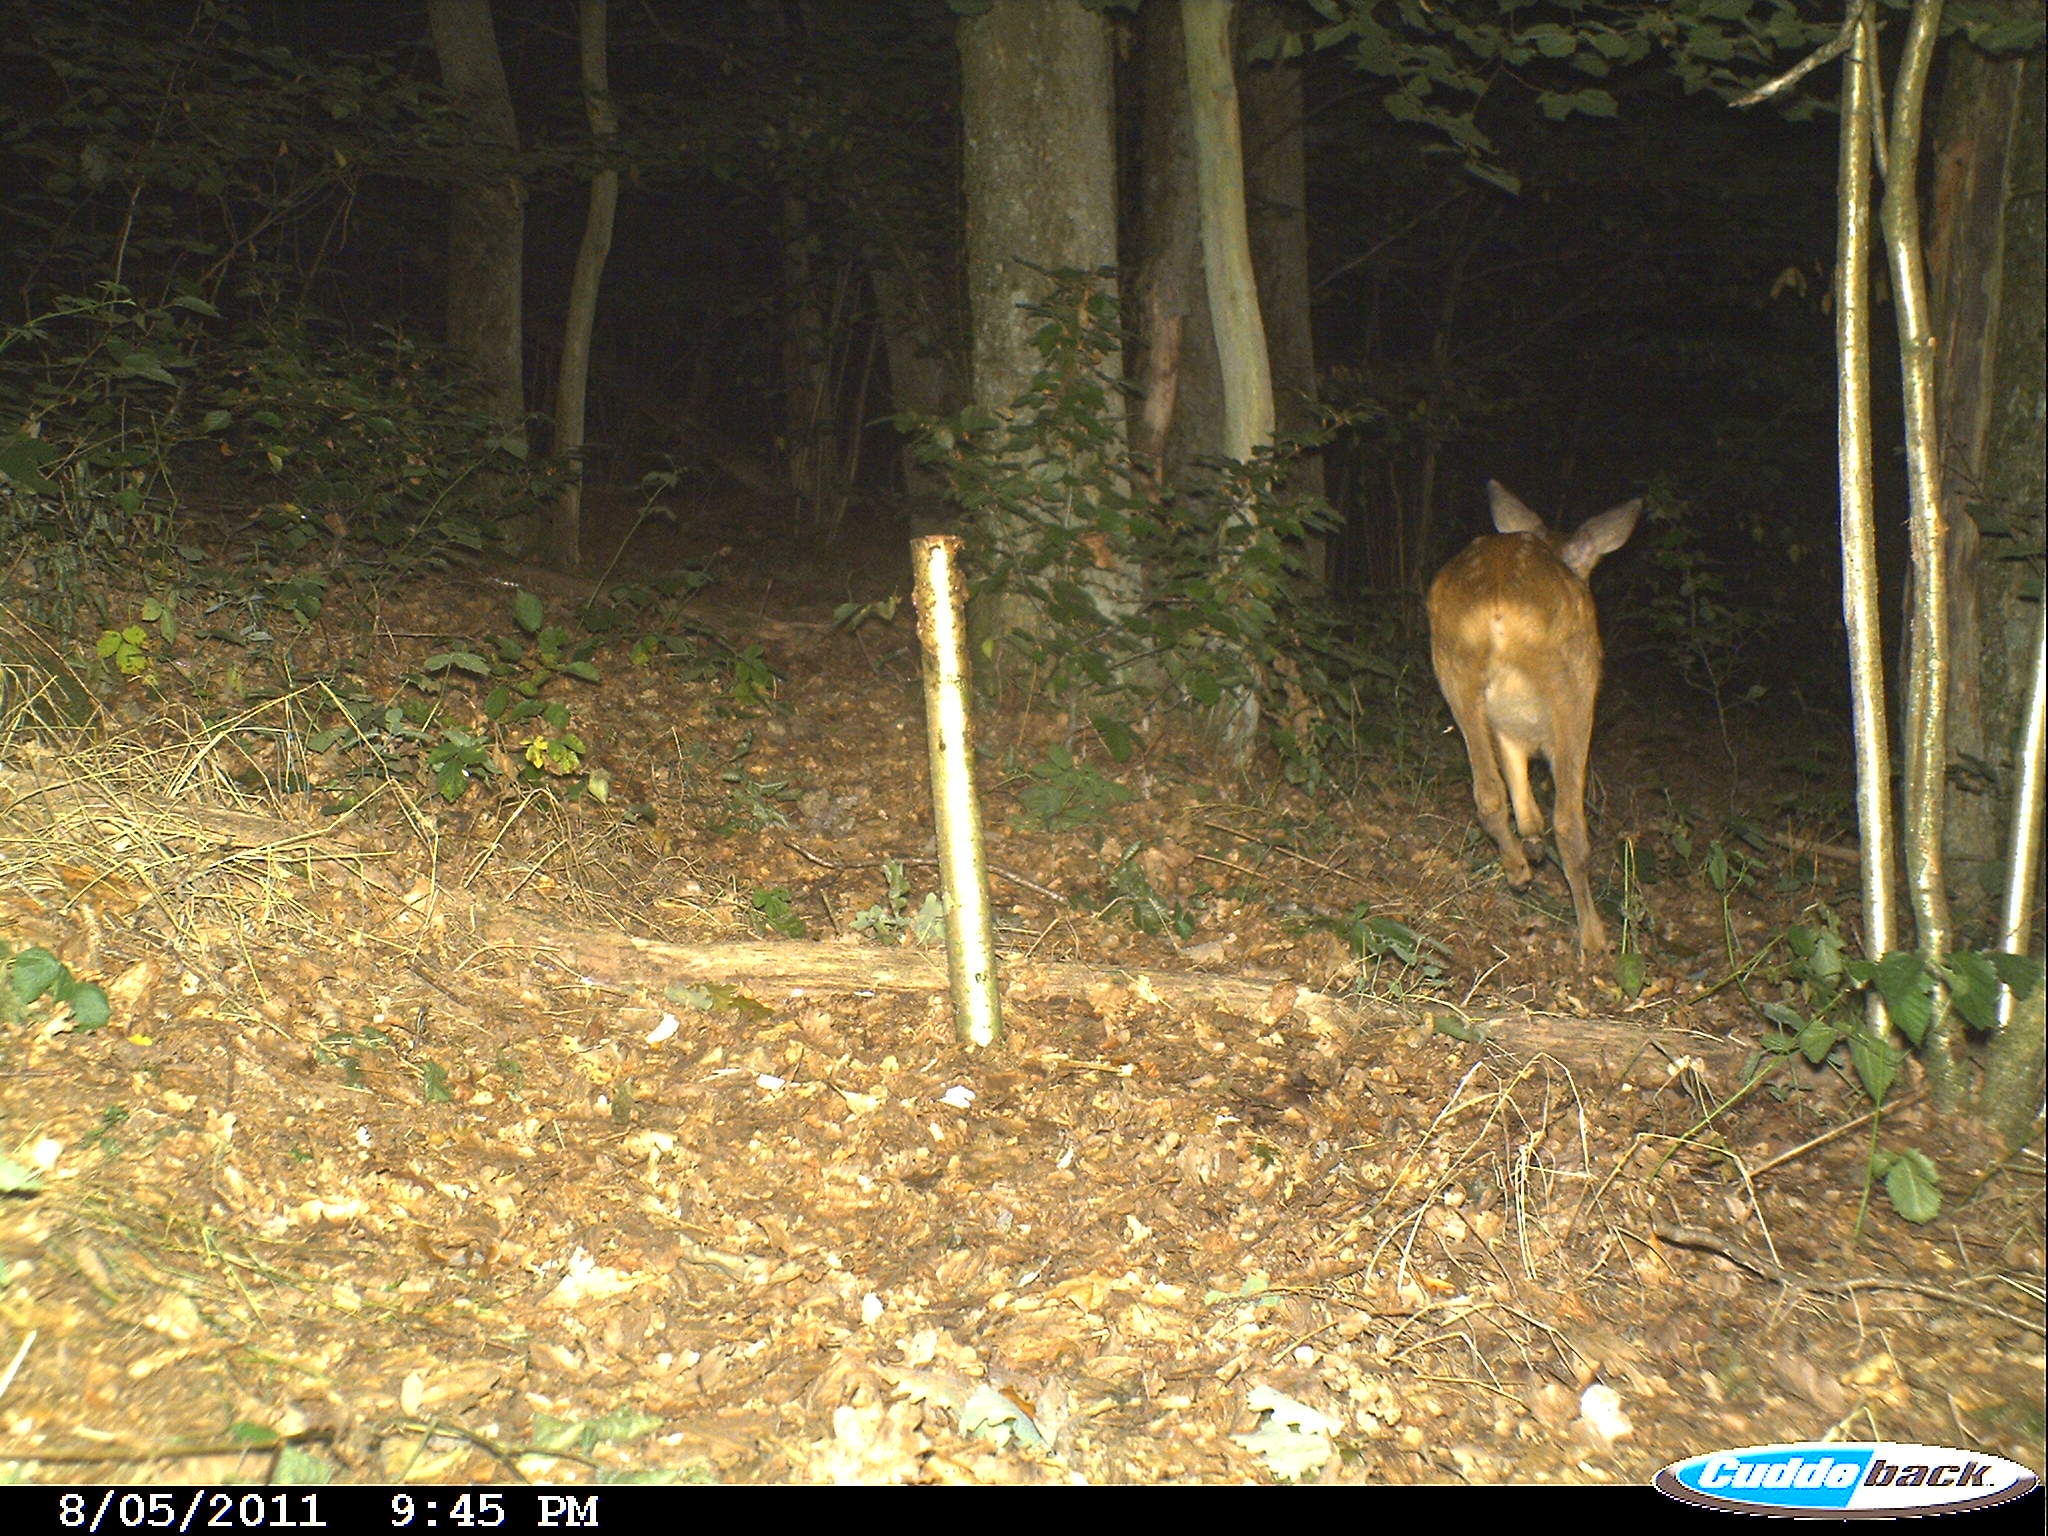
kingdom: Animalia
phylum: Chordata
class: Mammalia
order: Artiodactyla
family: Cervidae
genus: Capreolus
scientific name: Capreolus capreolus
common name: Western roe deer
